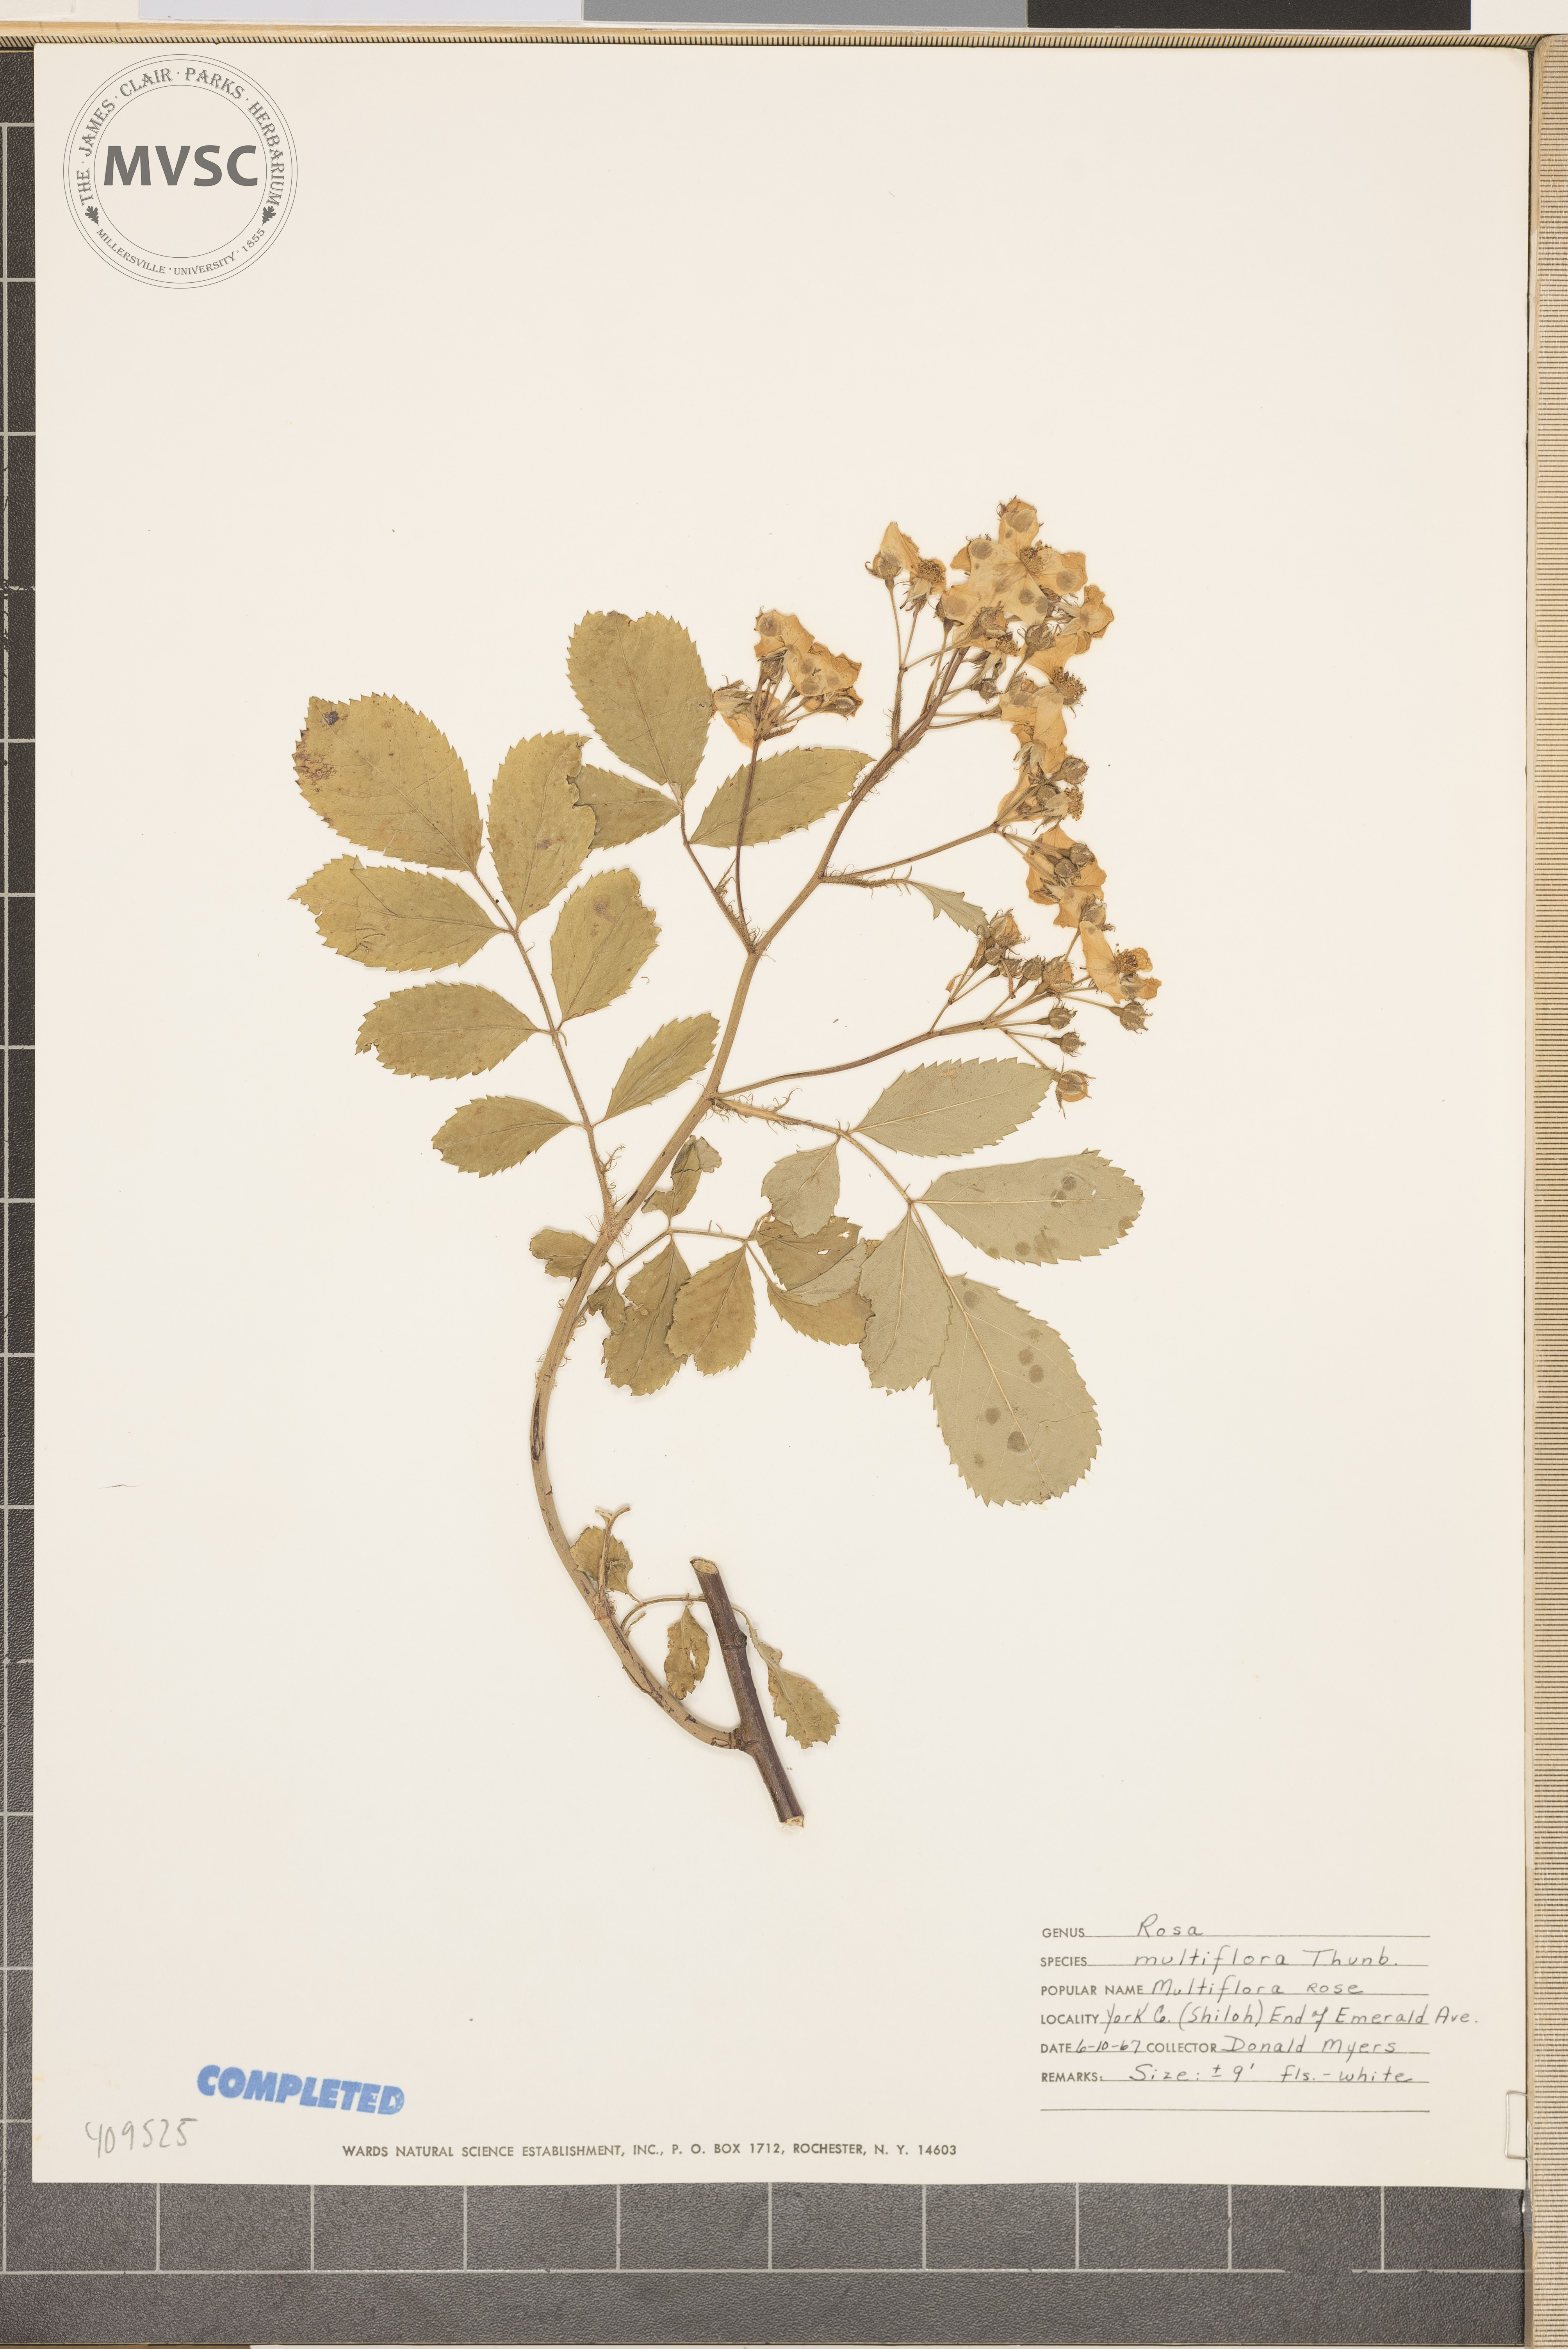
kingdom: Plantae
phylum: Tracheophyta
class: Magnoliopsida
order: Rosales
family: Rosaceae
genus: Rosa
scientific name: Rosa multiflora
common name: multiflora rose
